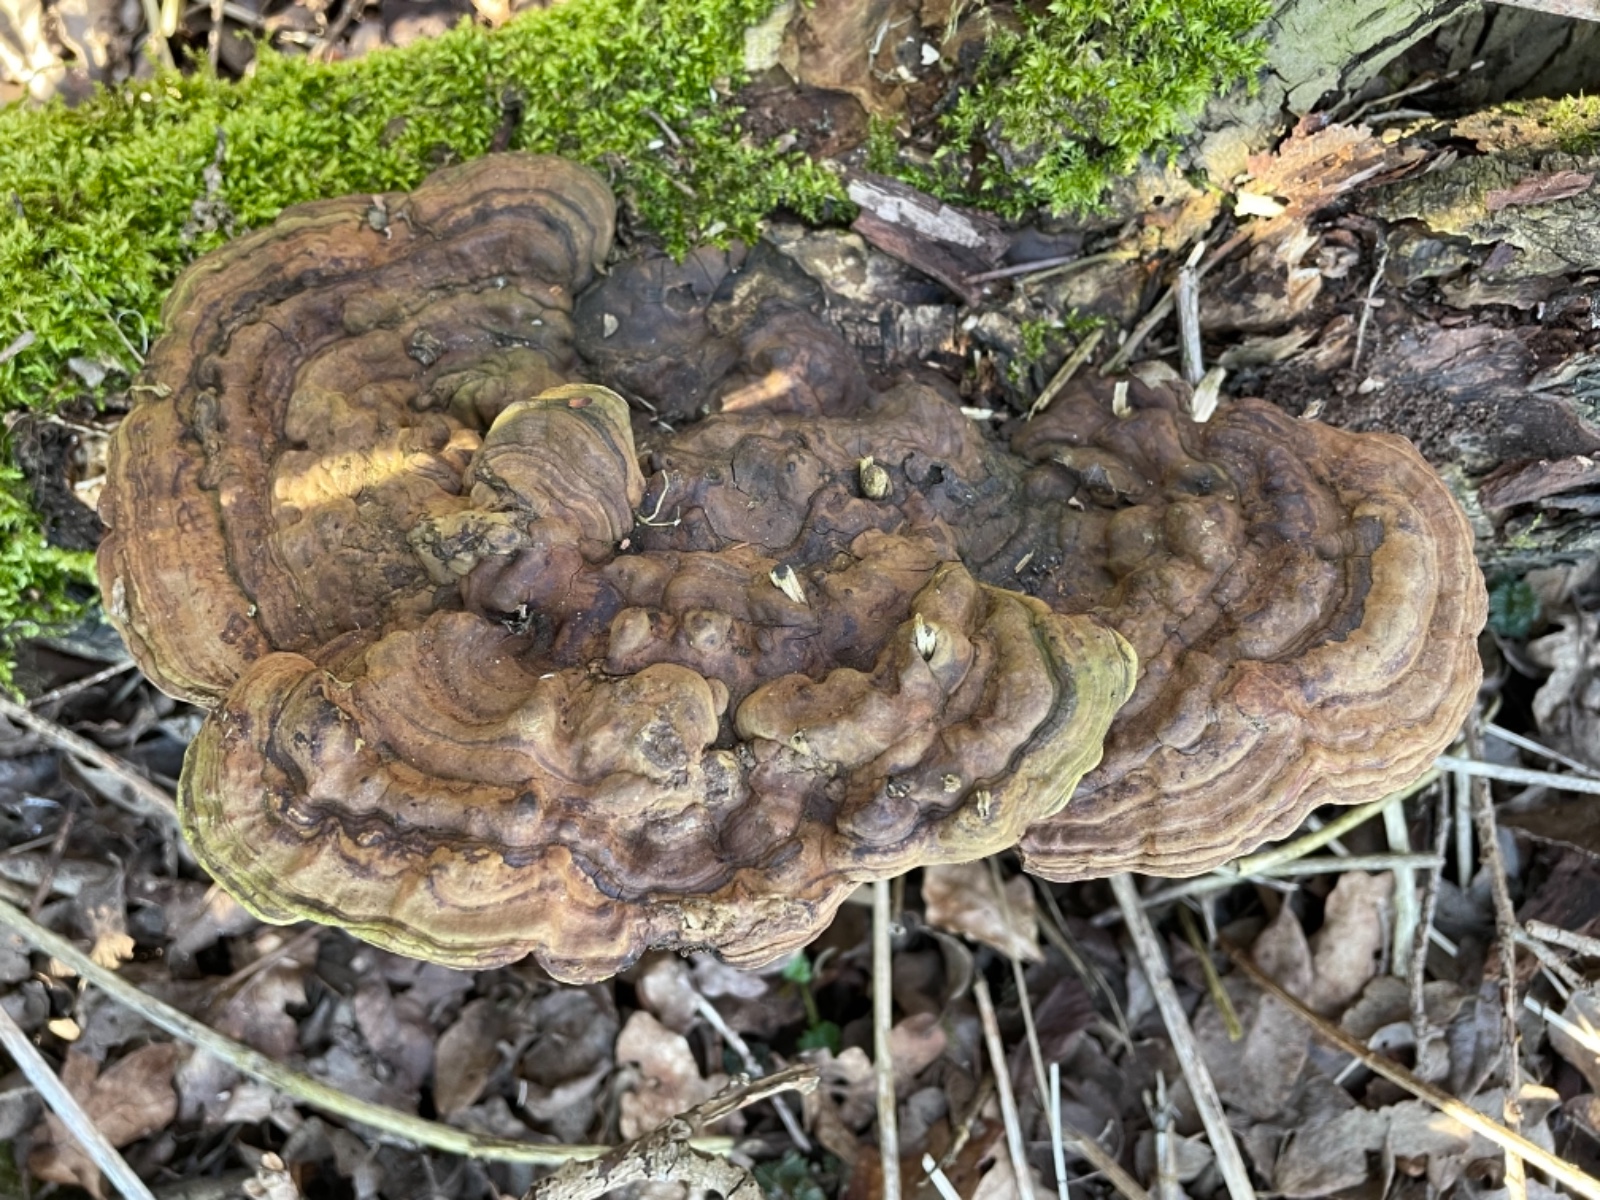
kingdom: Fungi
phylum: Basidiomycota
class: Agaricomycetes
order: Polyporales
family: Polyporaceae
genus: Ganoderma
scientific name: Ganoderma applanatum
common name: flad lakporesvamp
